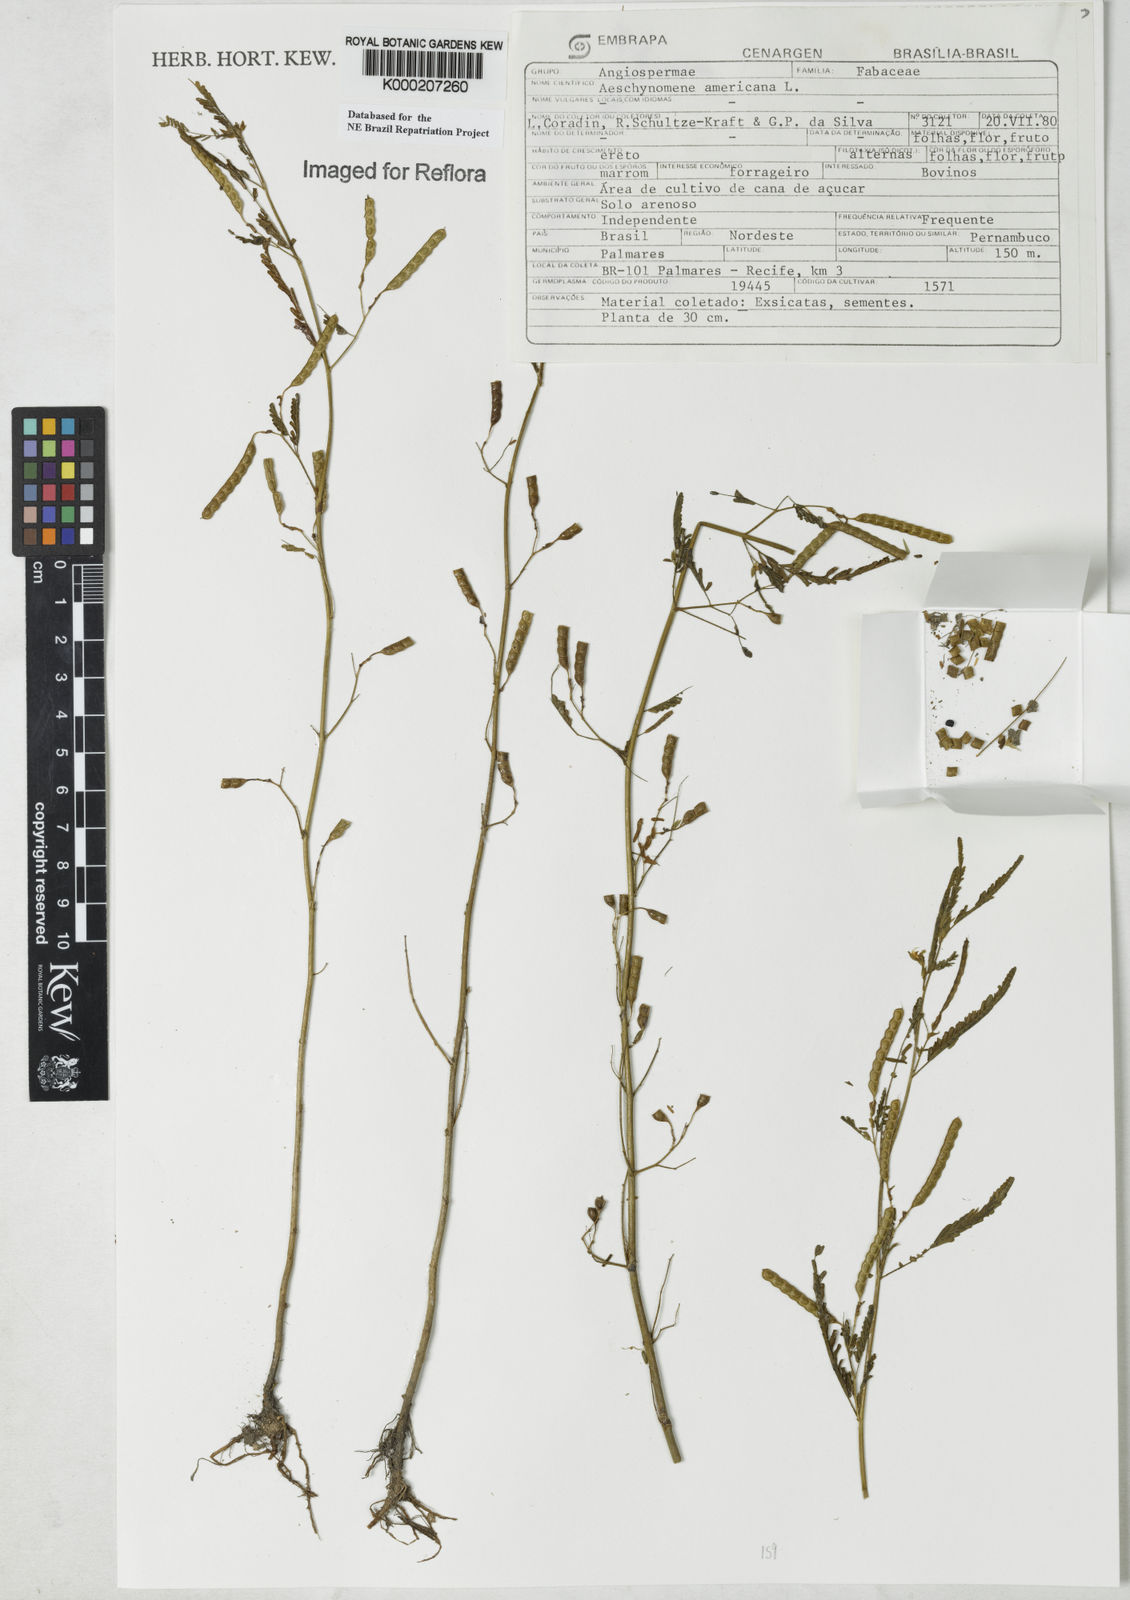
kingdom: Plantae
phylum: Tracheophyta
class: Magnoliopsida
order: Fabales
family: Fabaceae
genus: Aeschynomene
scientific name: Aeschynomene americana
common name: Joint-vetch
